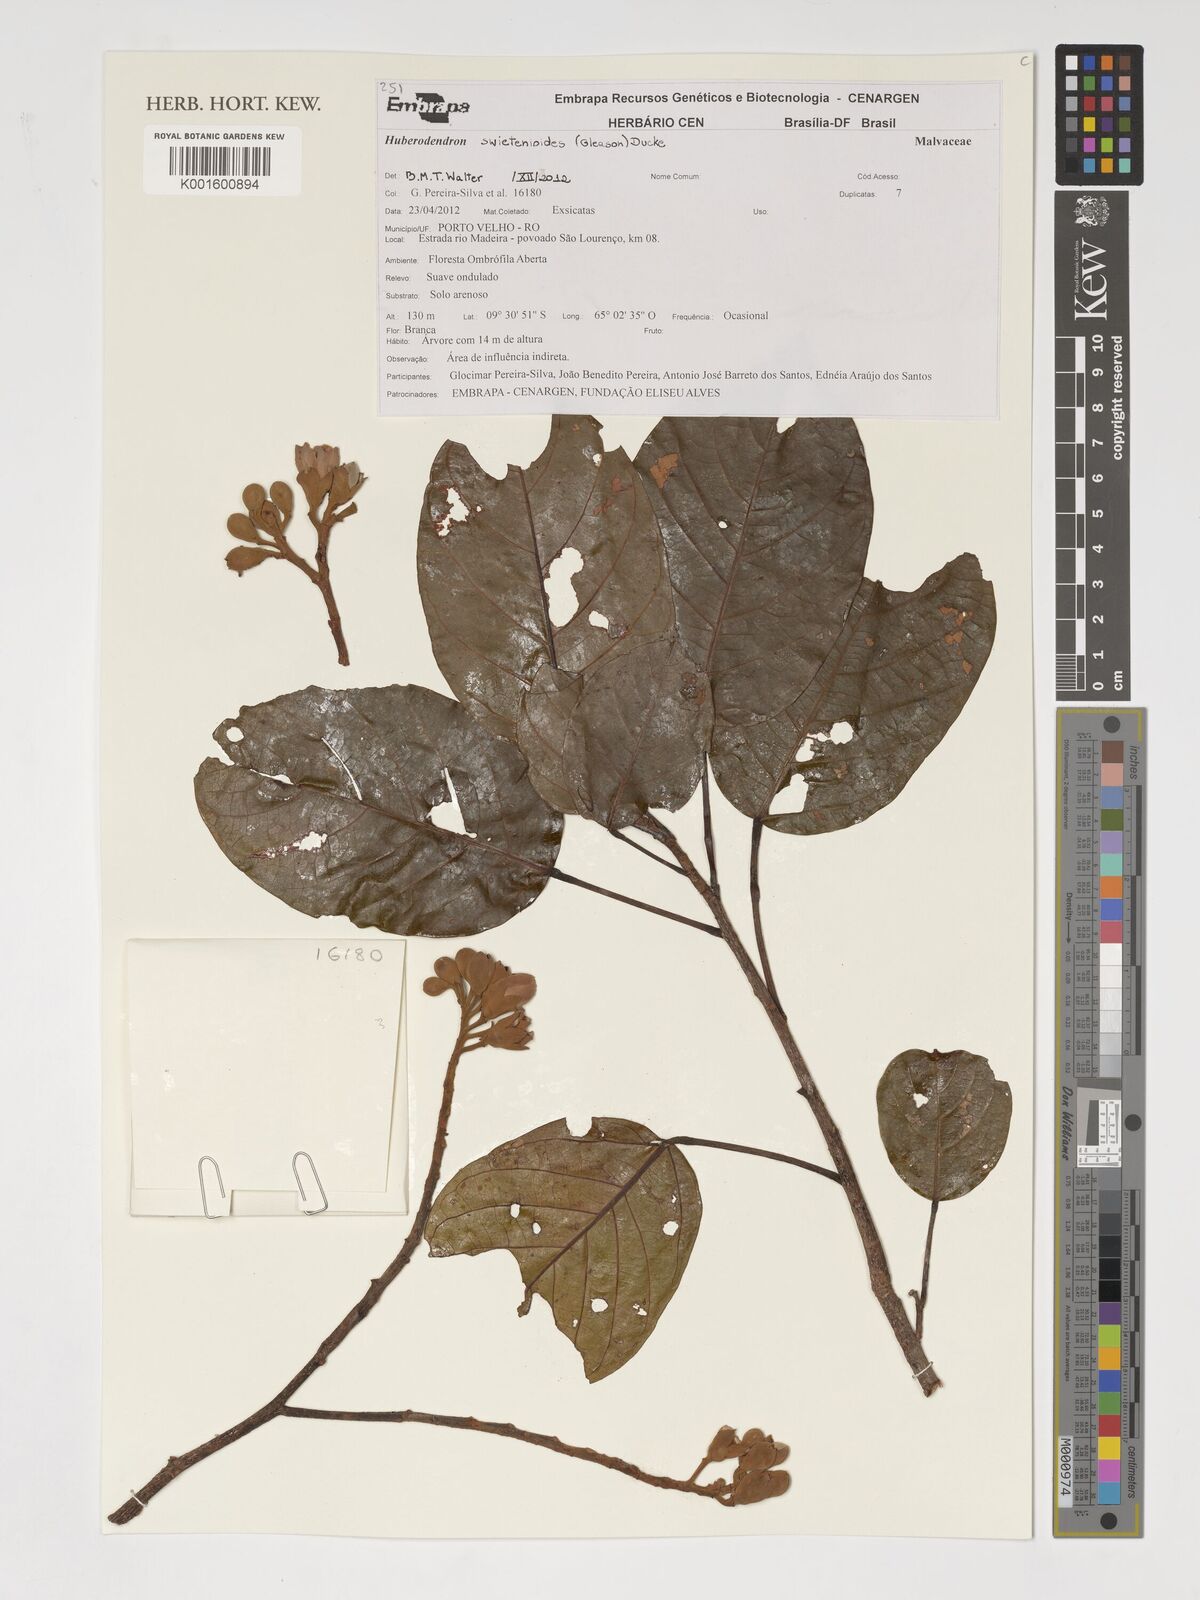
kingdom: Plantae
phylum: Tracheophyta
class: Magnoliopsida
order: Malvales
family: Malvaceae
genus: Huberodendron
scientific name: Huberodendron swietenioides
